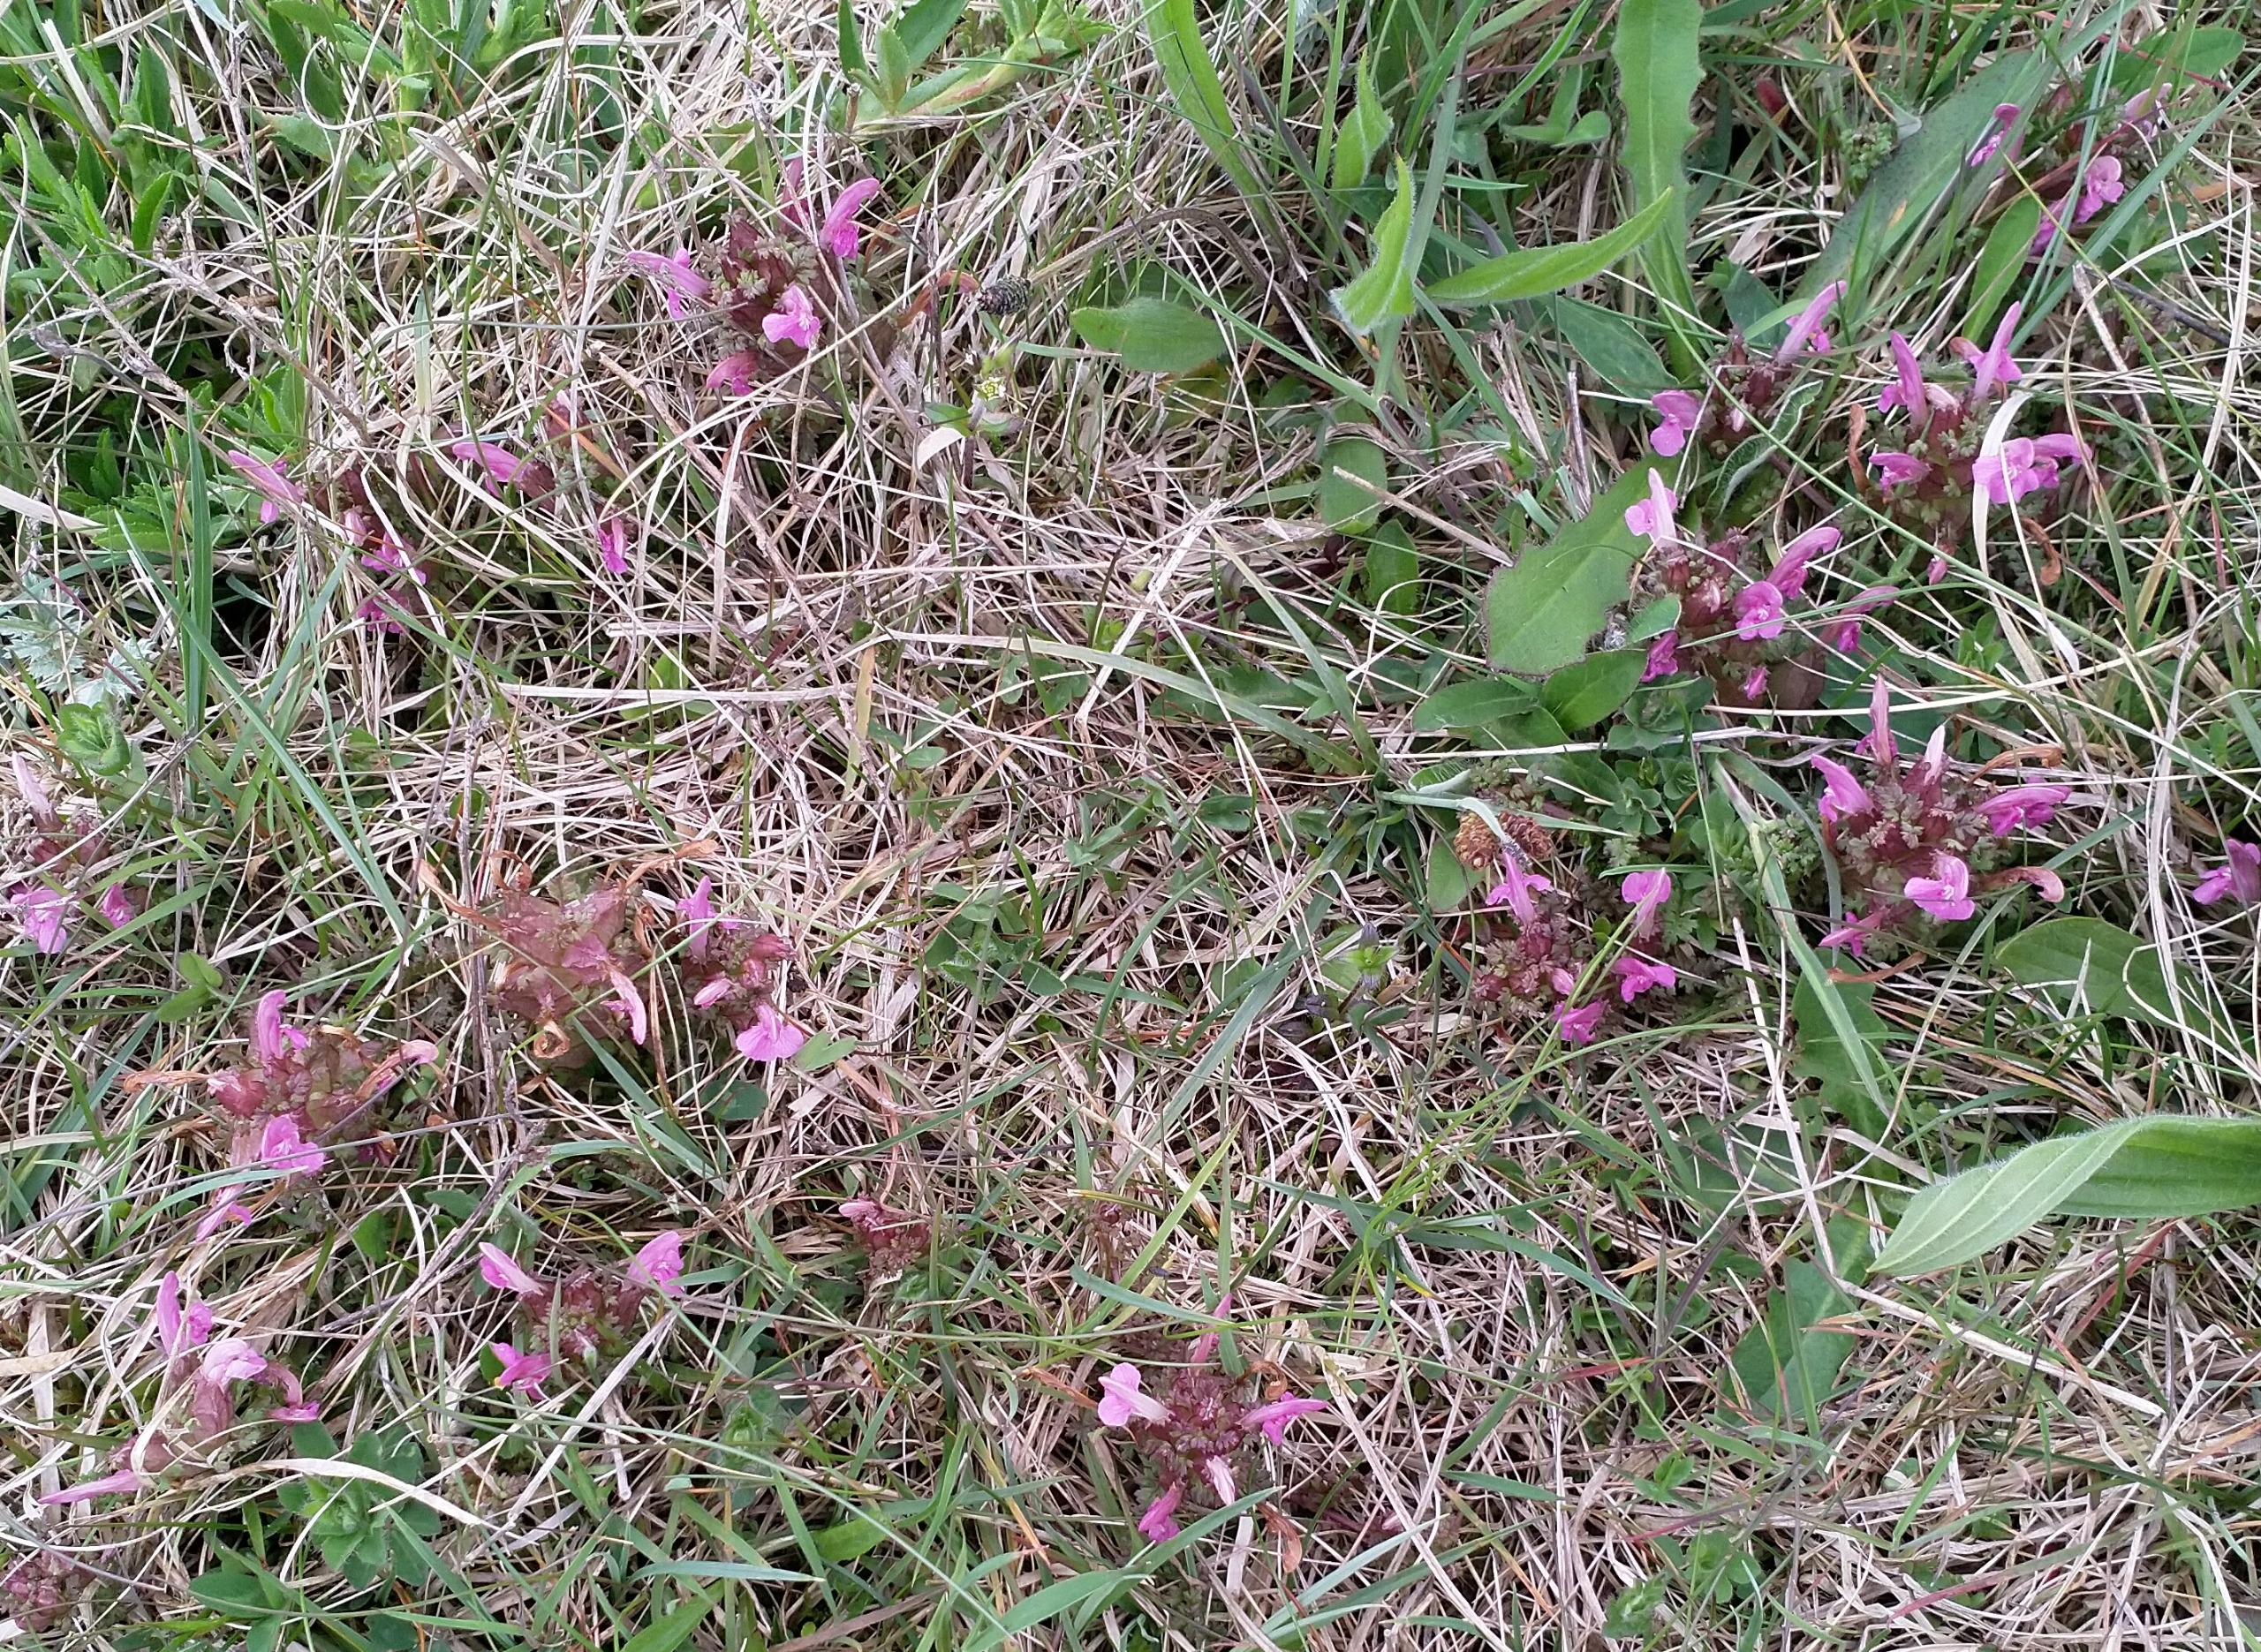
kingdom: Plantae
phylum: Tracheophyta
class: Magnoliopsida
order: Lamiales
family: Orobanchaceae
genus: Pedicularis
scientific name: Pedicularis sylvatica
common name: Mose-troldurt
